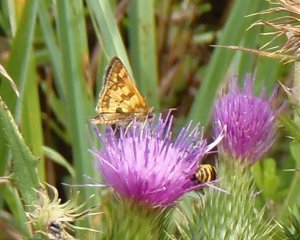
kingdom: Animalia
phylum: Arthropoda
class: Insecta
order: Lepidoptera
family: Hesperiidae
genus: Polites
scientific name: Polites coras
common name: Peck's Skipper
